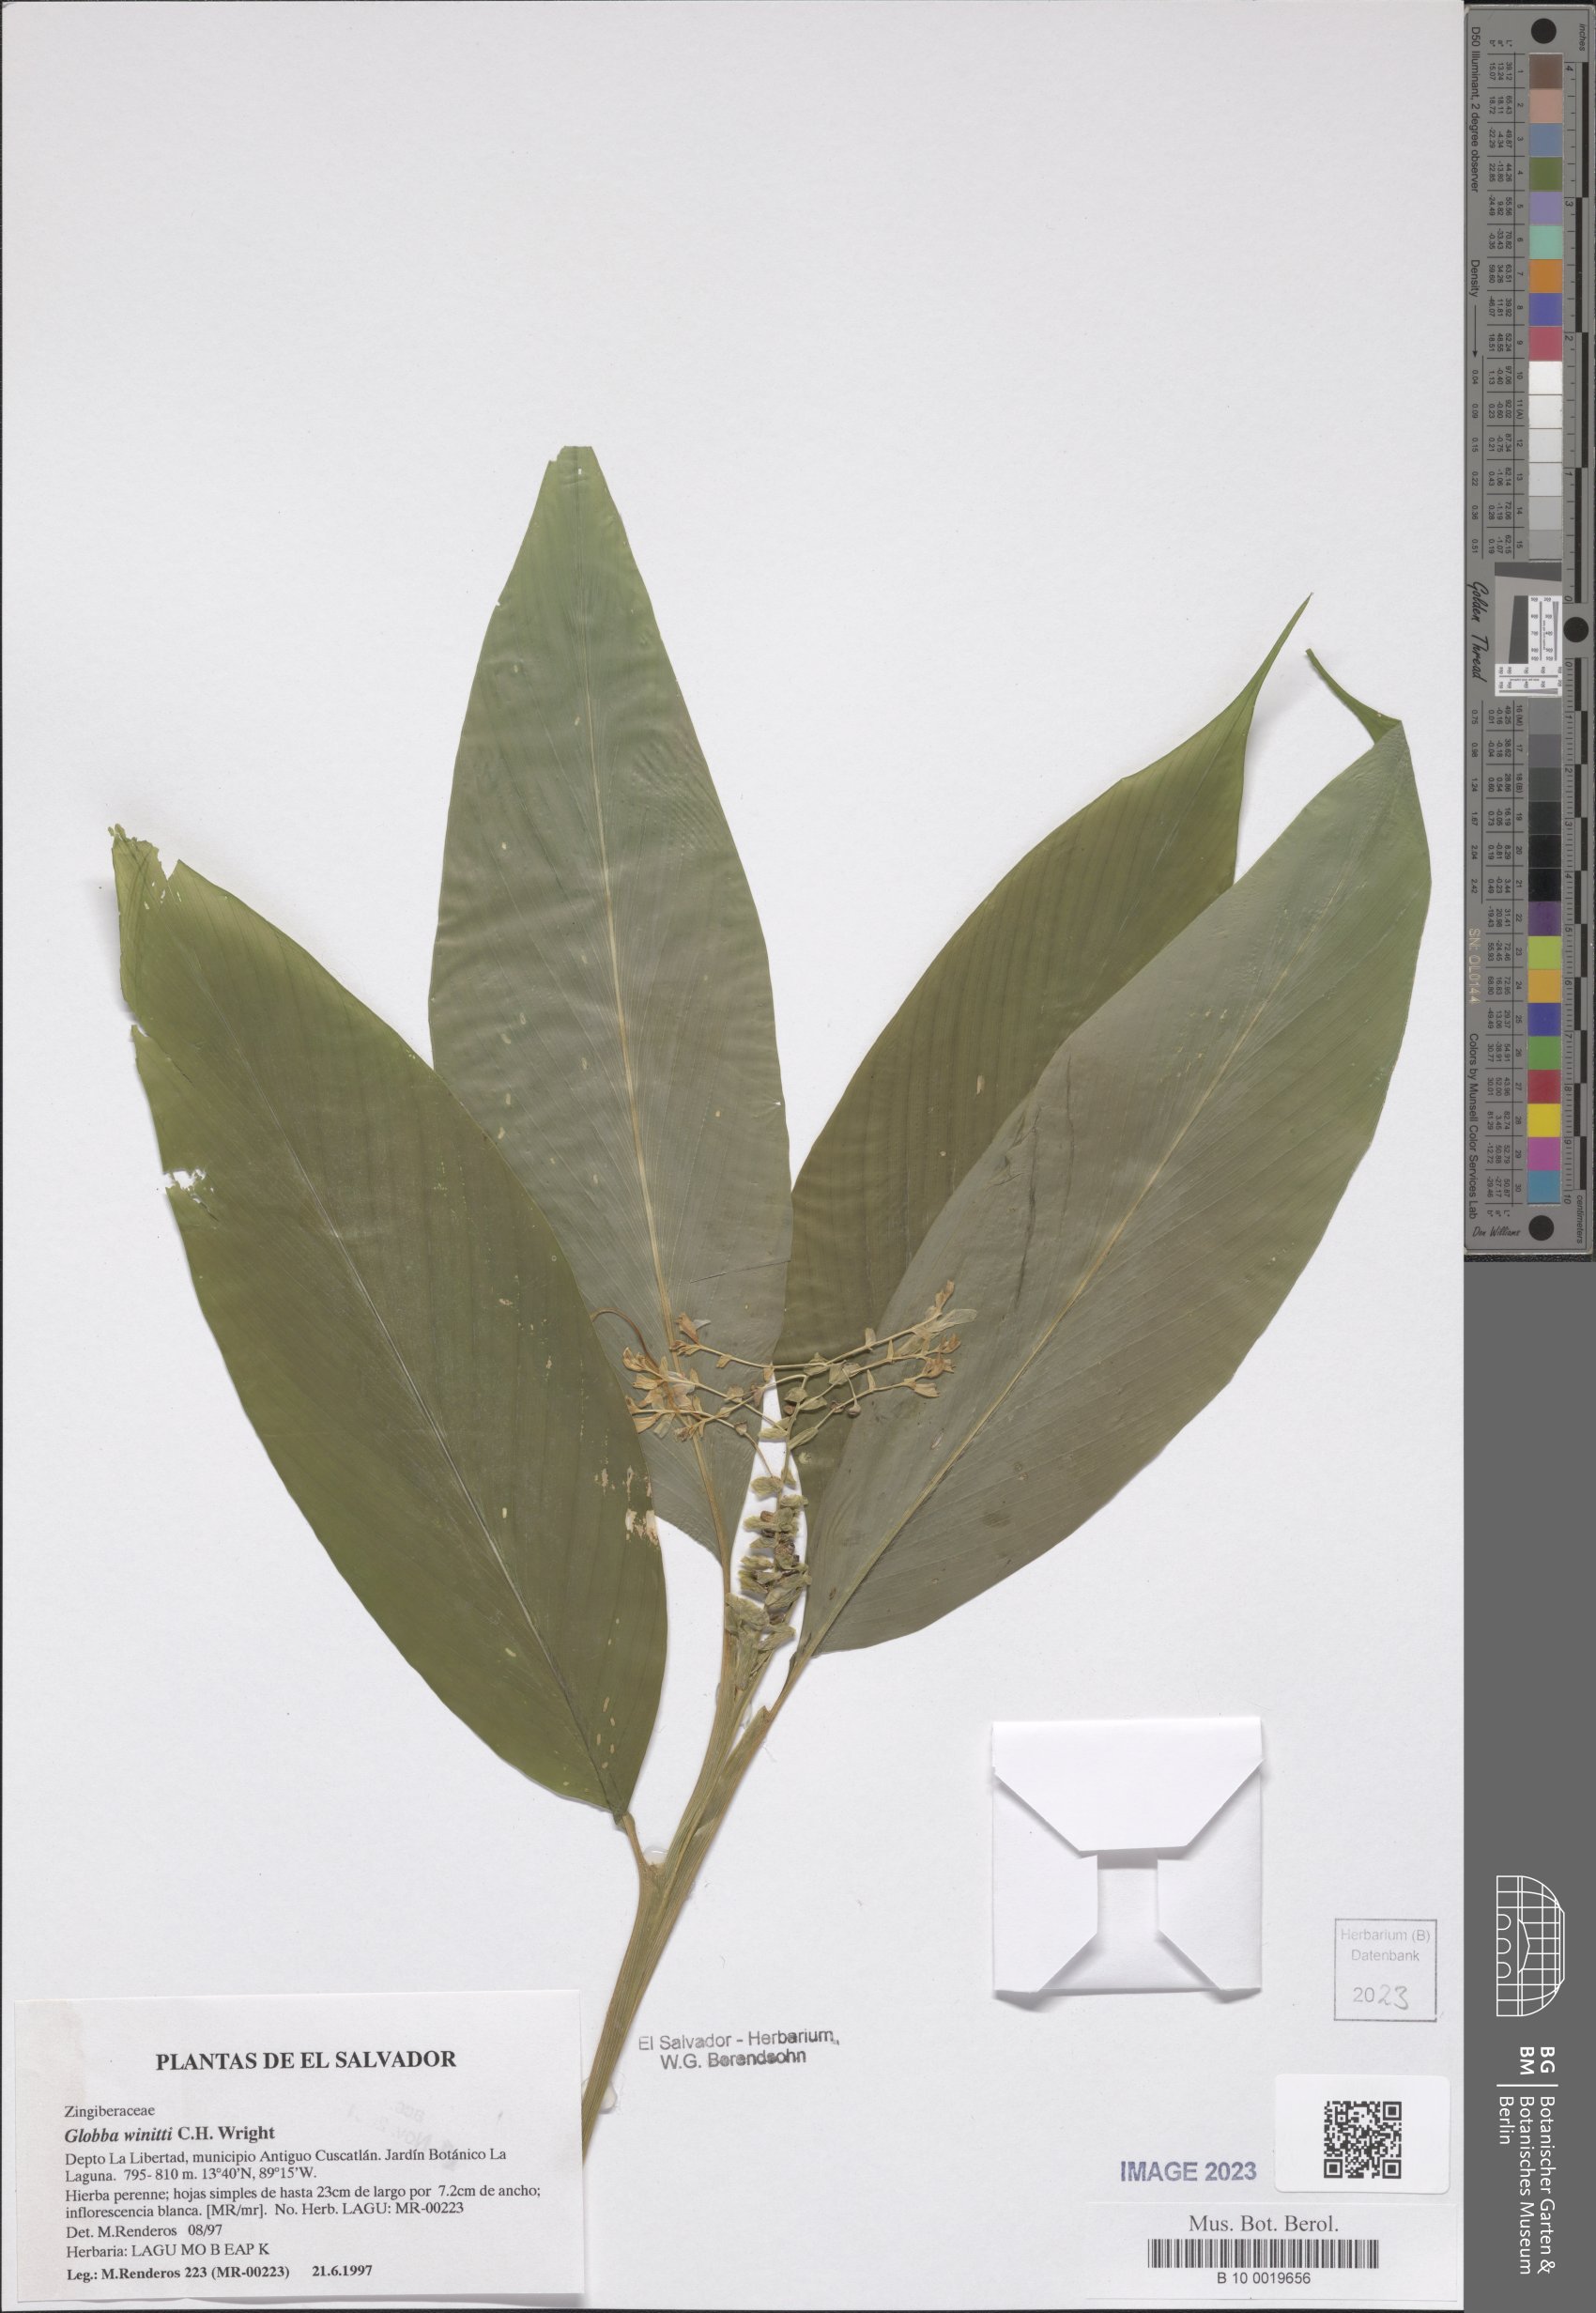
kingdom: Plantae
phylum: Tracheophyta
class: Liliopsida
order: Zingiberales
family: Zingiberaceae
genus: Globba
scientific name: Globba winitii
